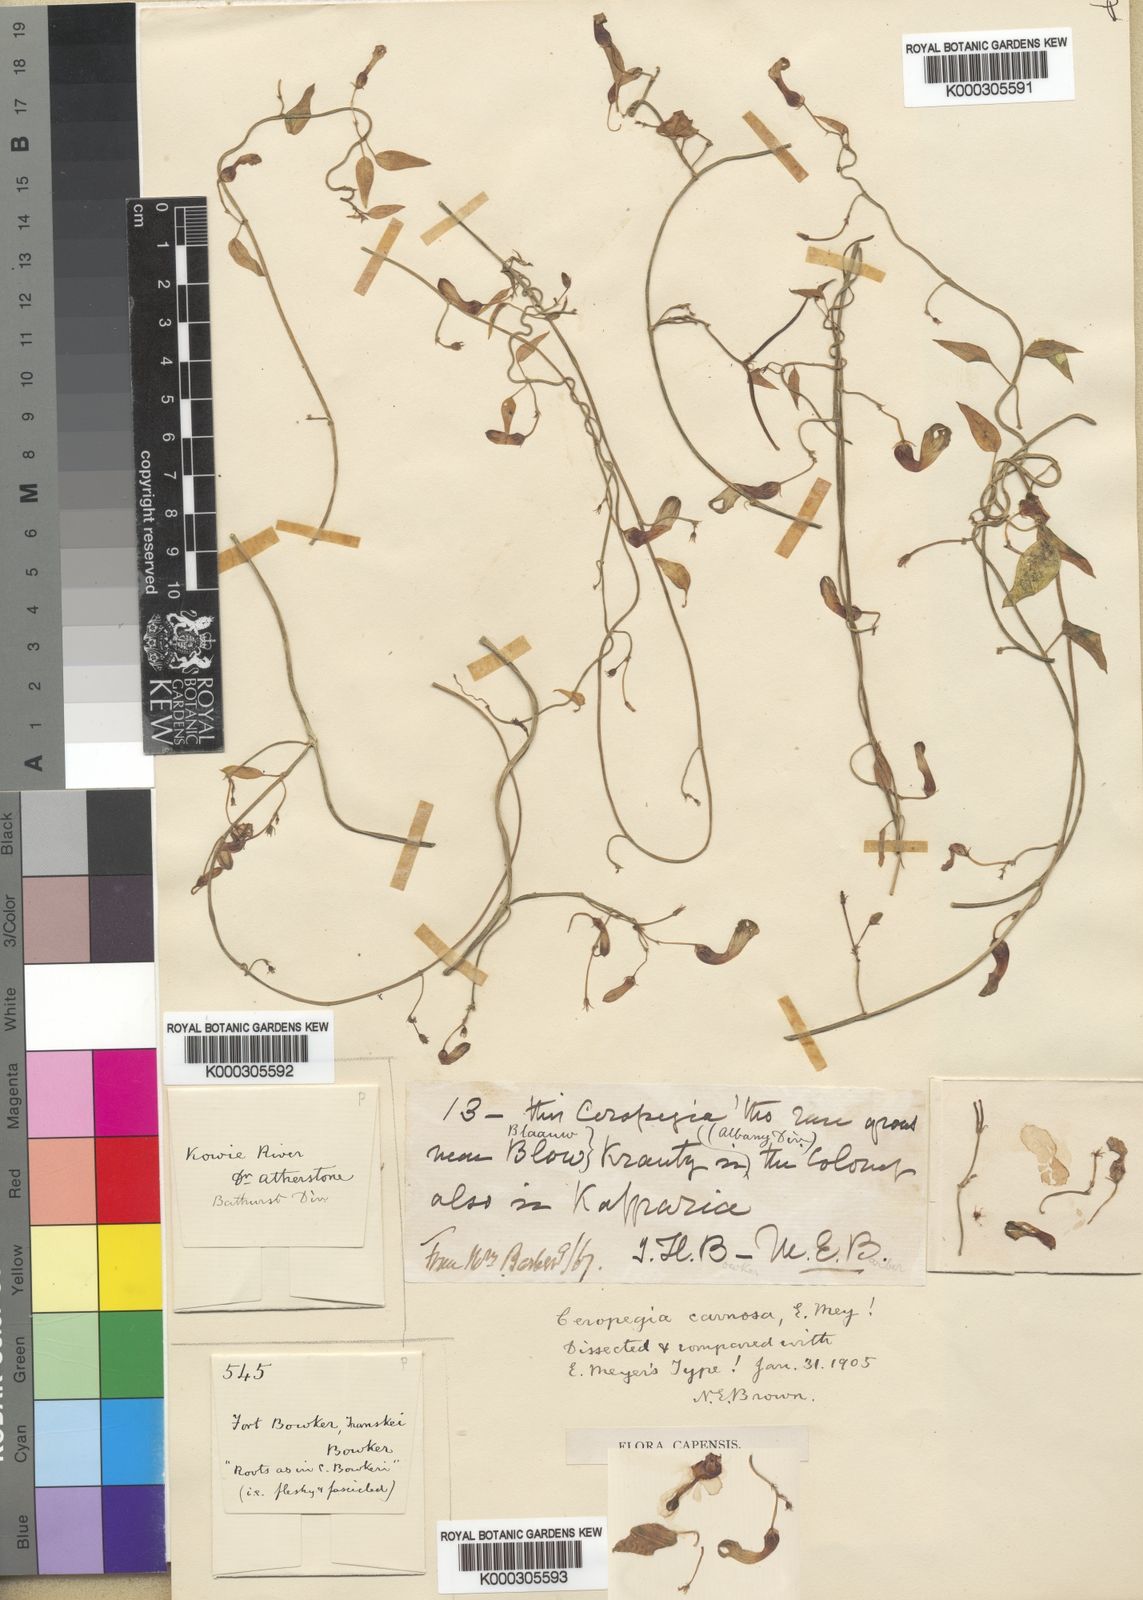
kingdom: Plantae
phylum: Tracheophyta
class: Magnoliopsida
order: Gentianales
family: Apocynaceae
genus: Ceropegia
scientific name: Ceropegia carnosa
